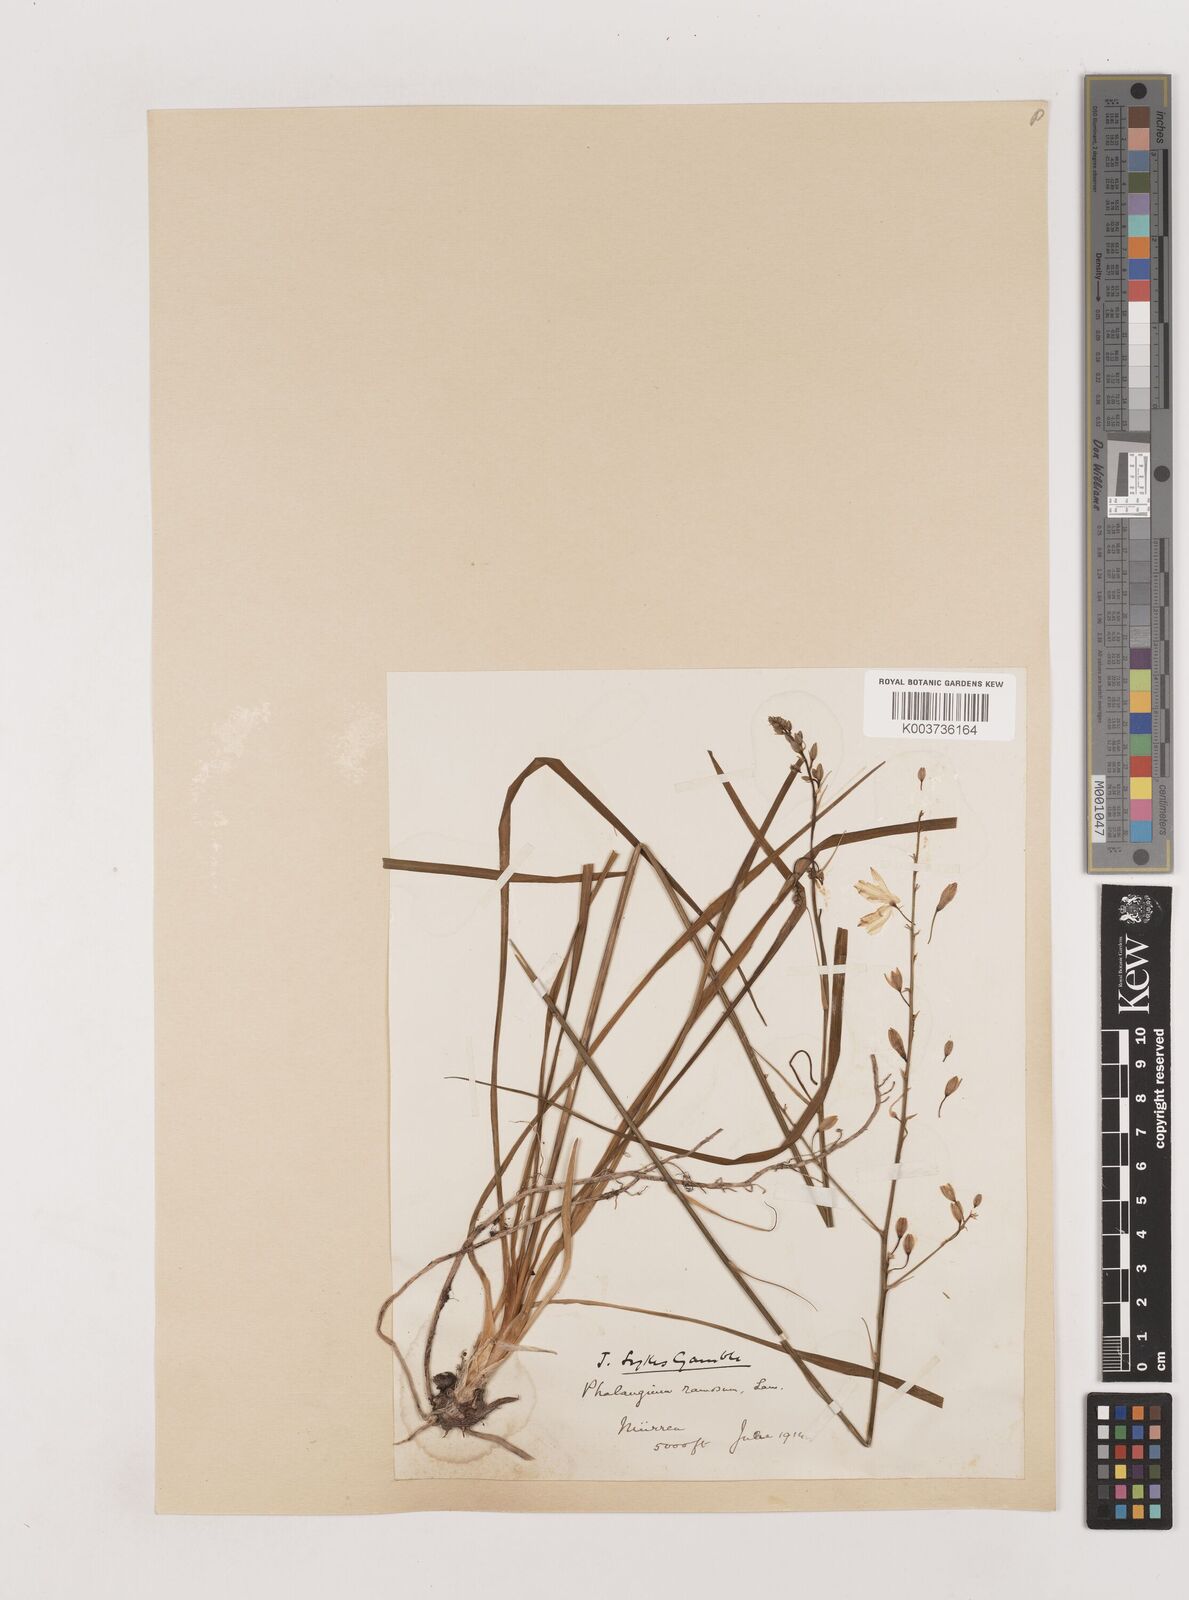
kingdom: Plantae
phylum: Tracheophyta
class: Liliopsida
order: Asparagales
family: Asparagaceae
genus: Anthericum
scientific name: Anthericum ramosum
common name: Branched st. bernard's-lily
